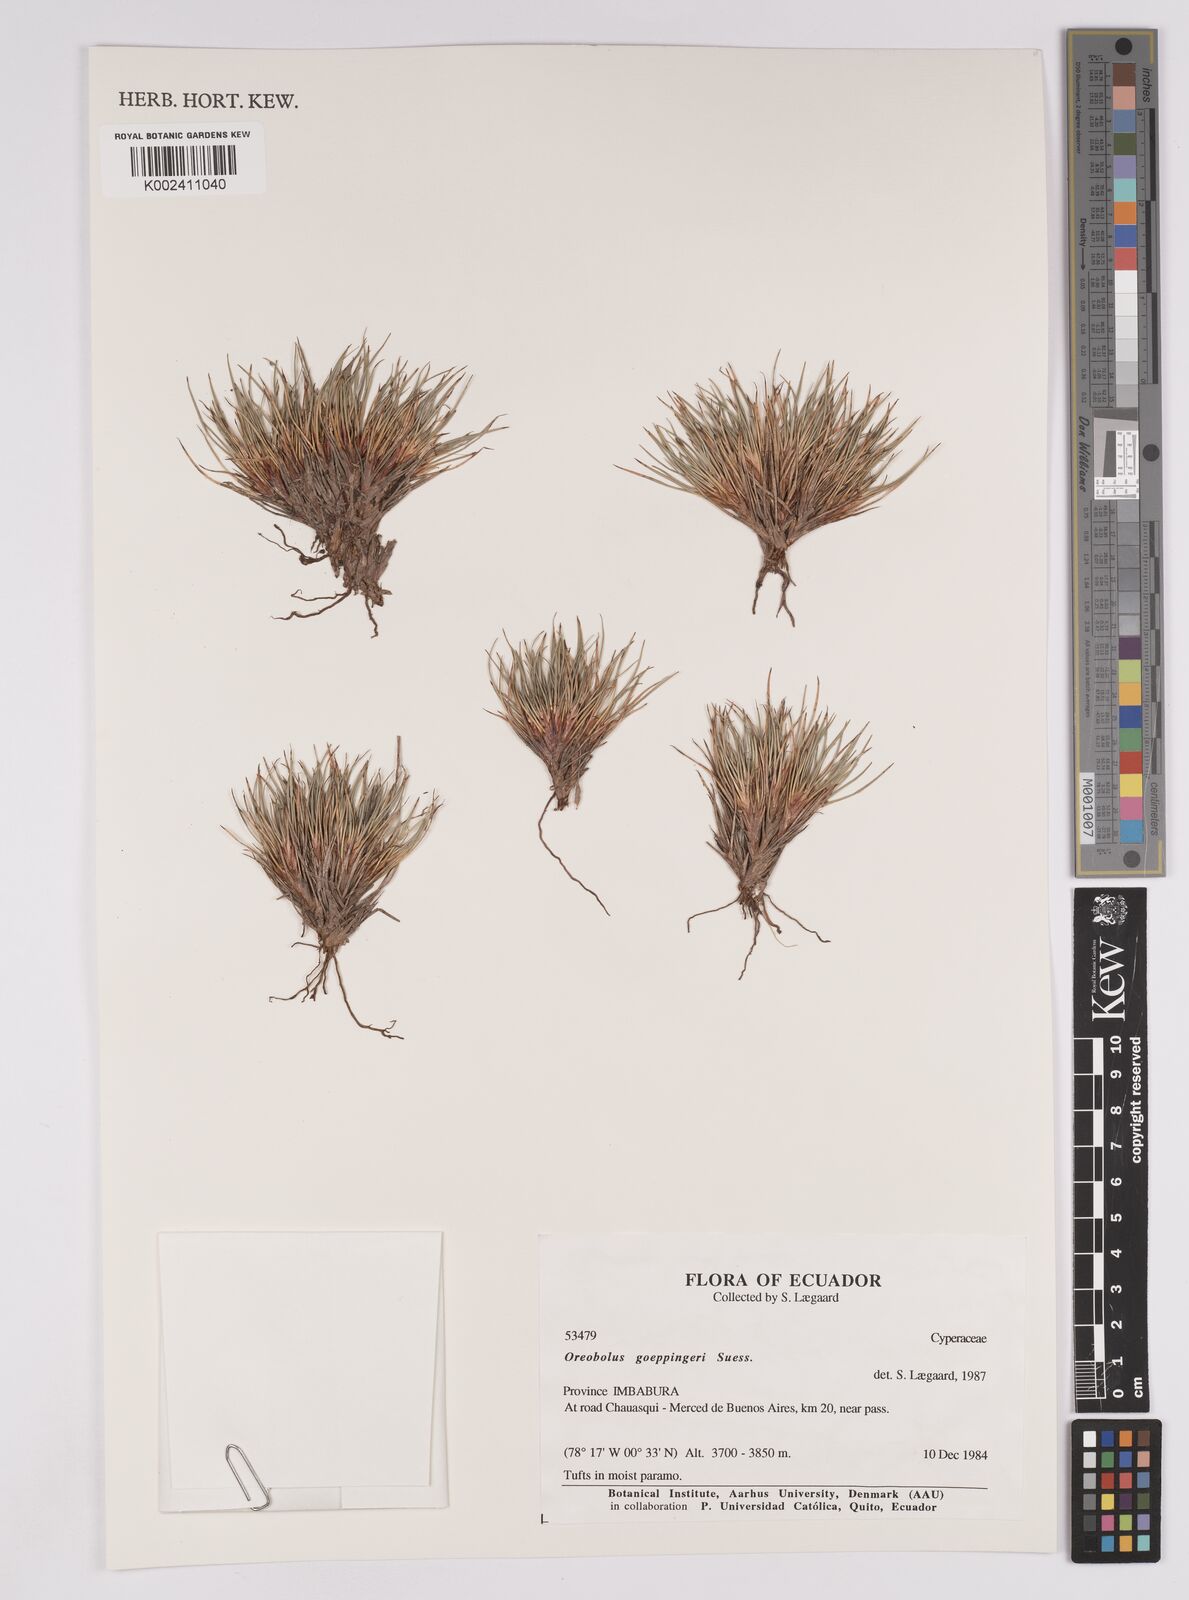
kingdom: Plantae
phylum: Tracheophyta
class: Liliopsida
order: Poales
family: Cyperaceae
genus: Oreobolus
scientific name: Oreobolus goeppingeri
